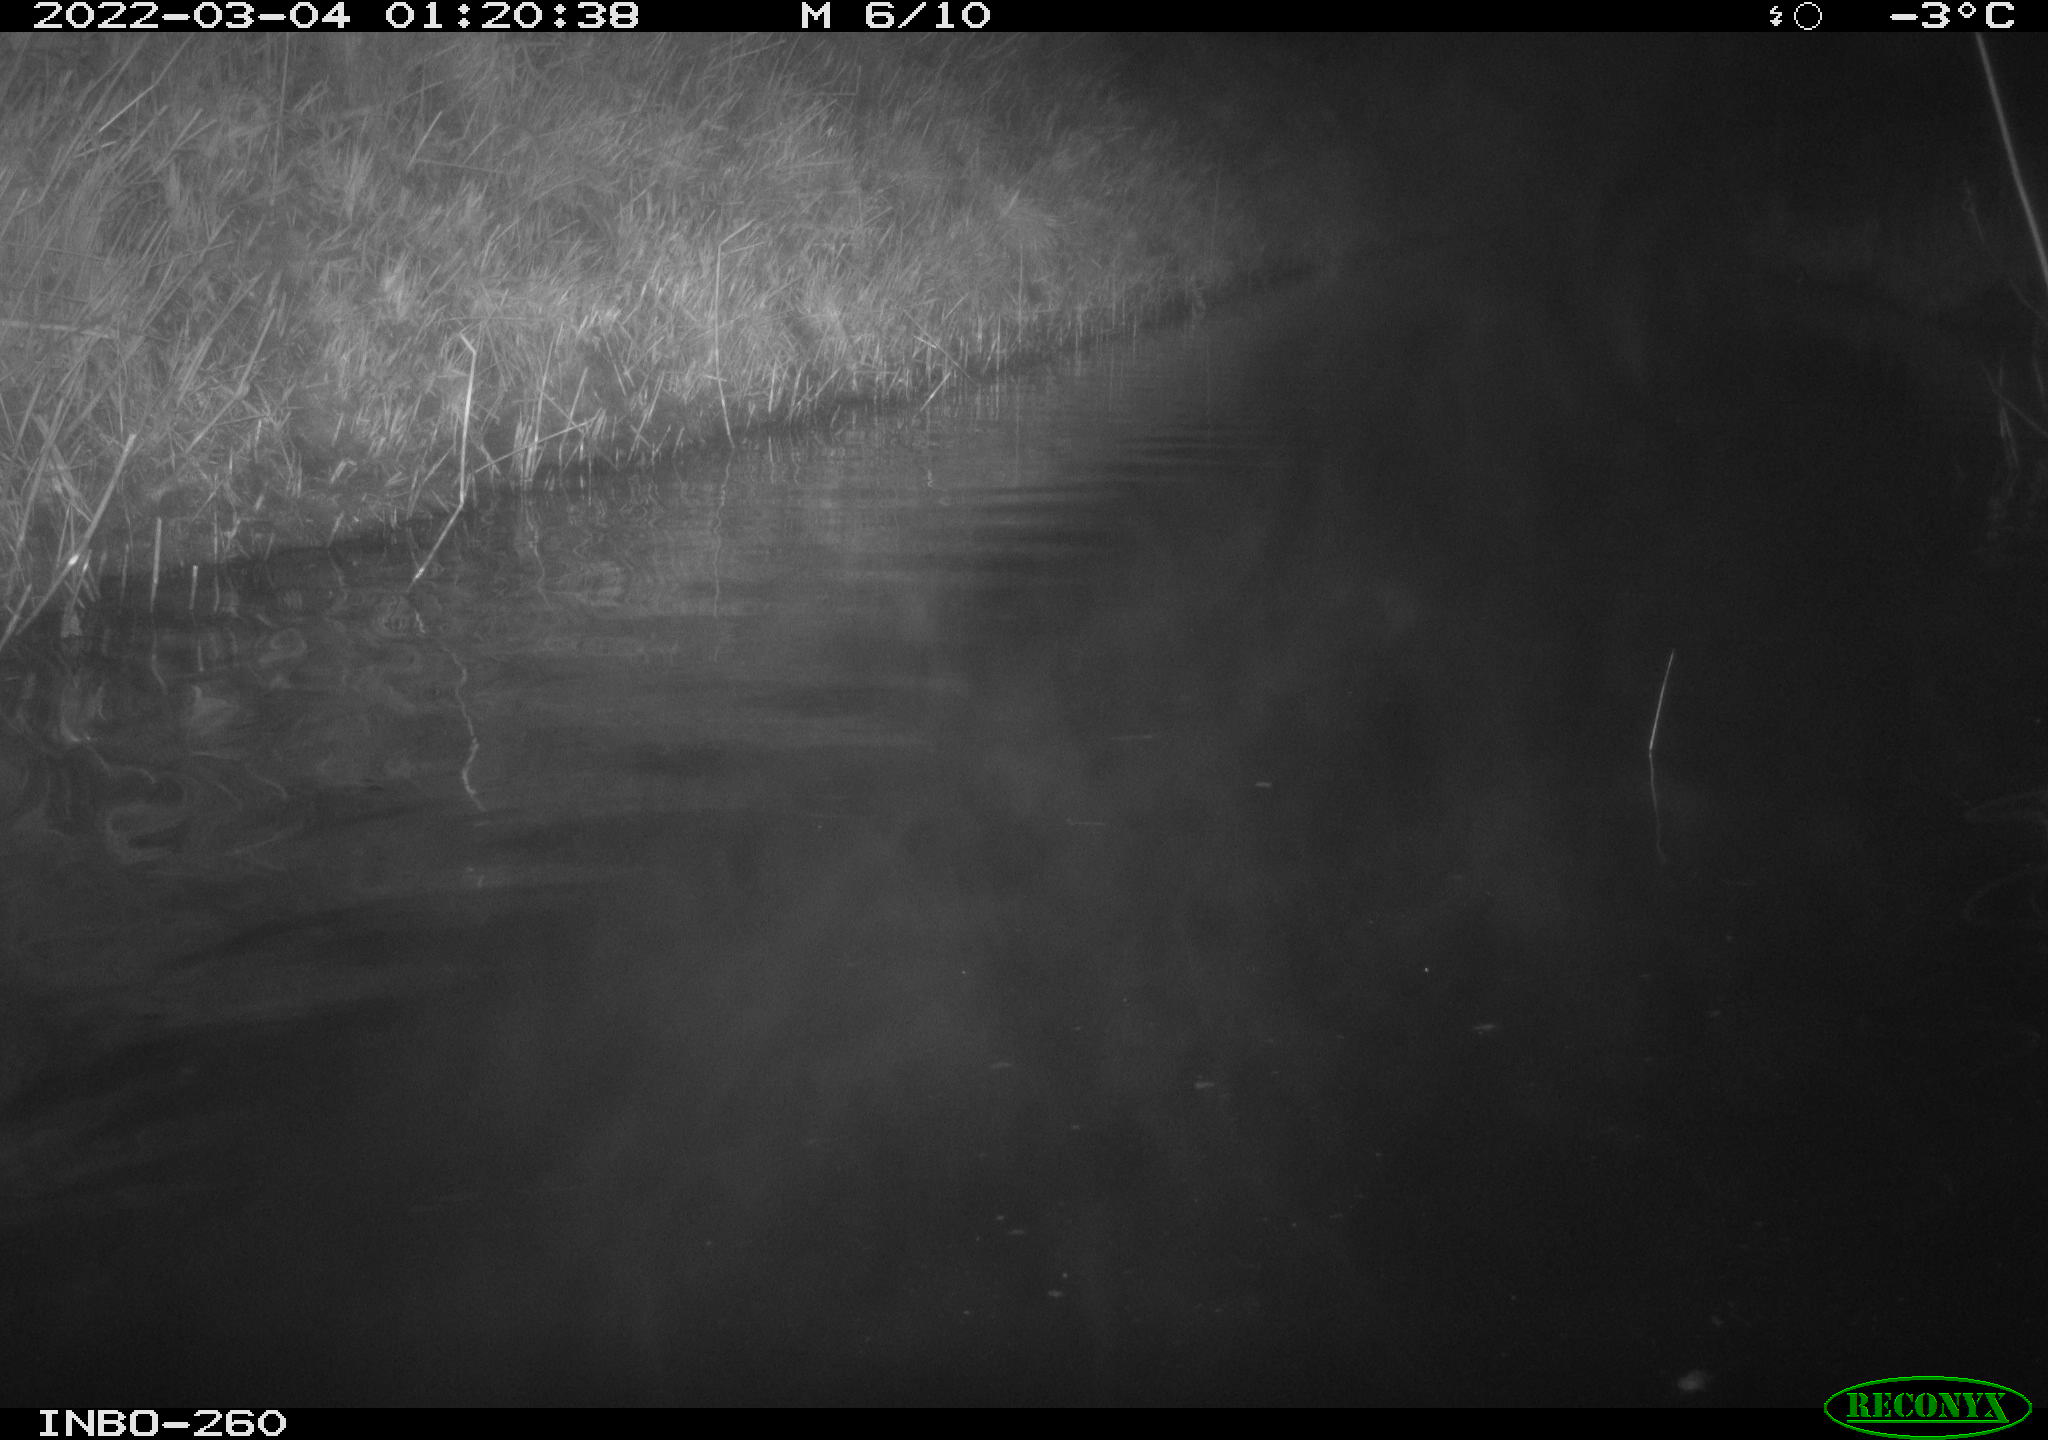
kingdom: Animalia
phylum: Chordata
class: Mammalia
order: Rodentia
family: Cricetidae
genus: Ondatra
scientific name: Ondatra zibethicus
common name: Muskrat
